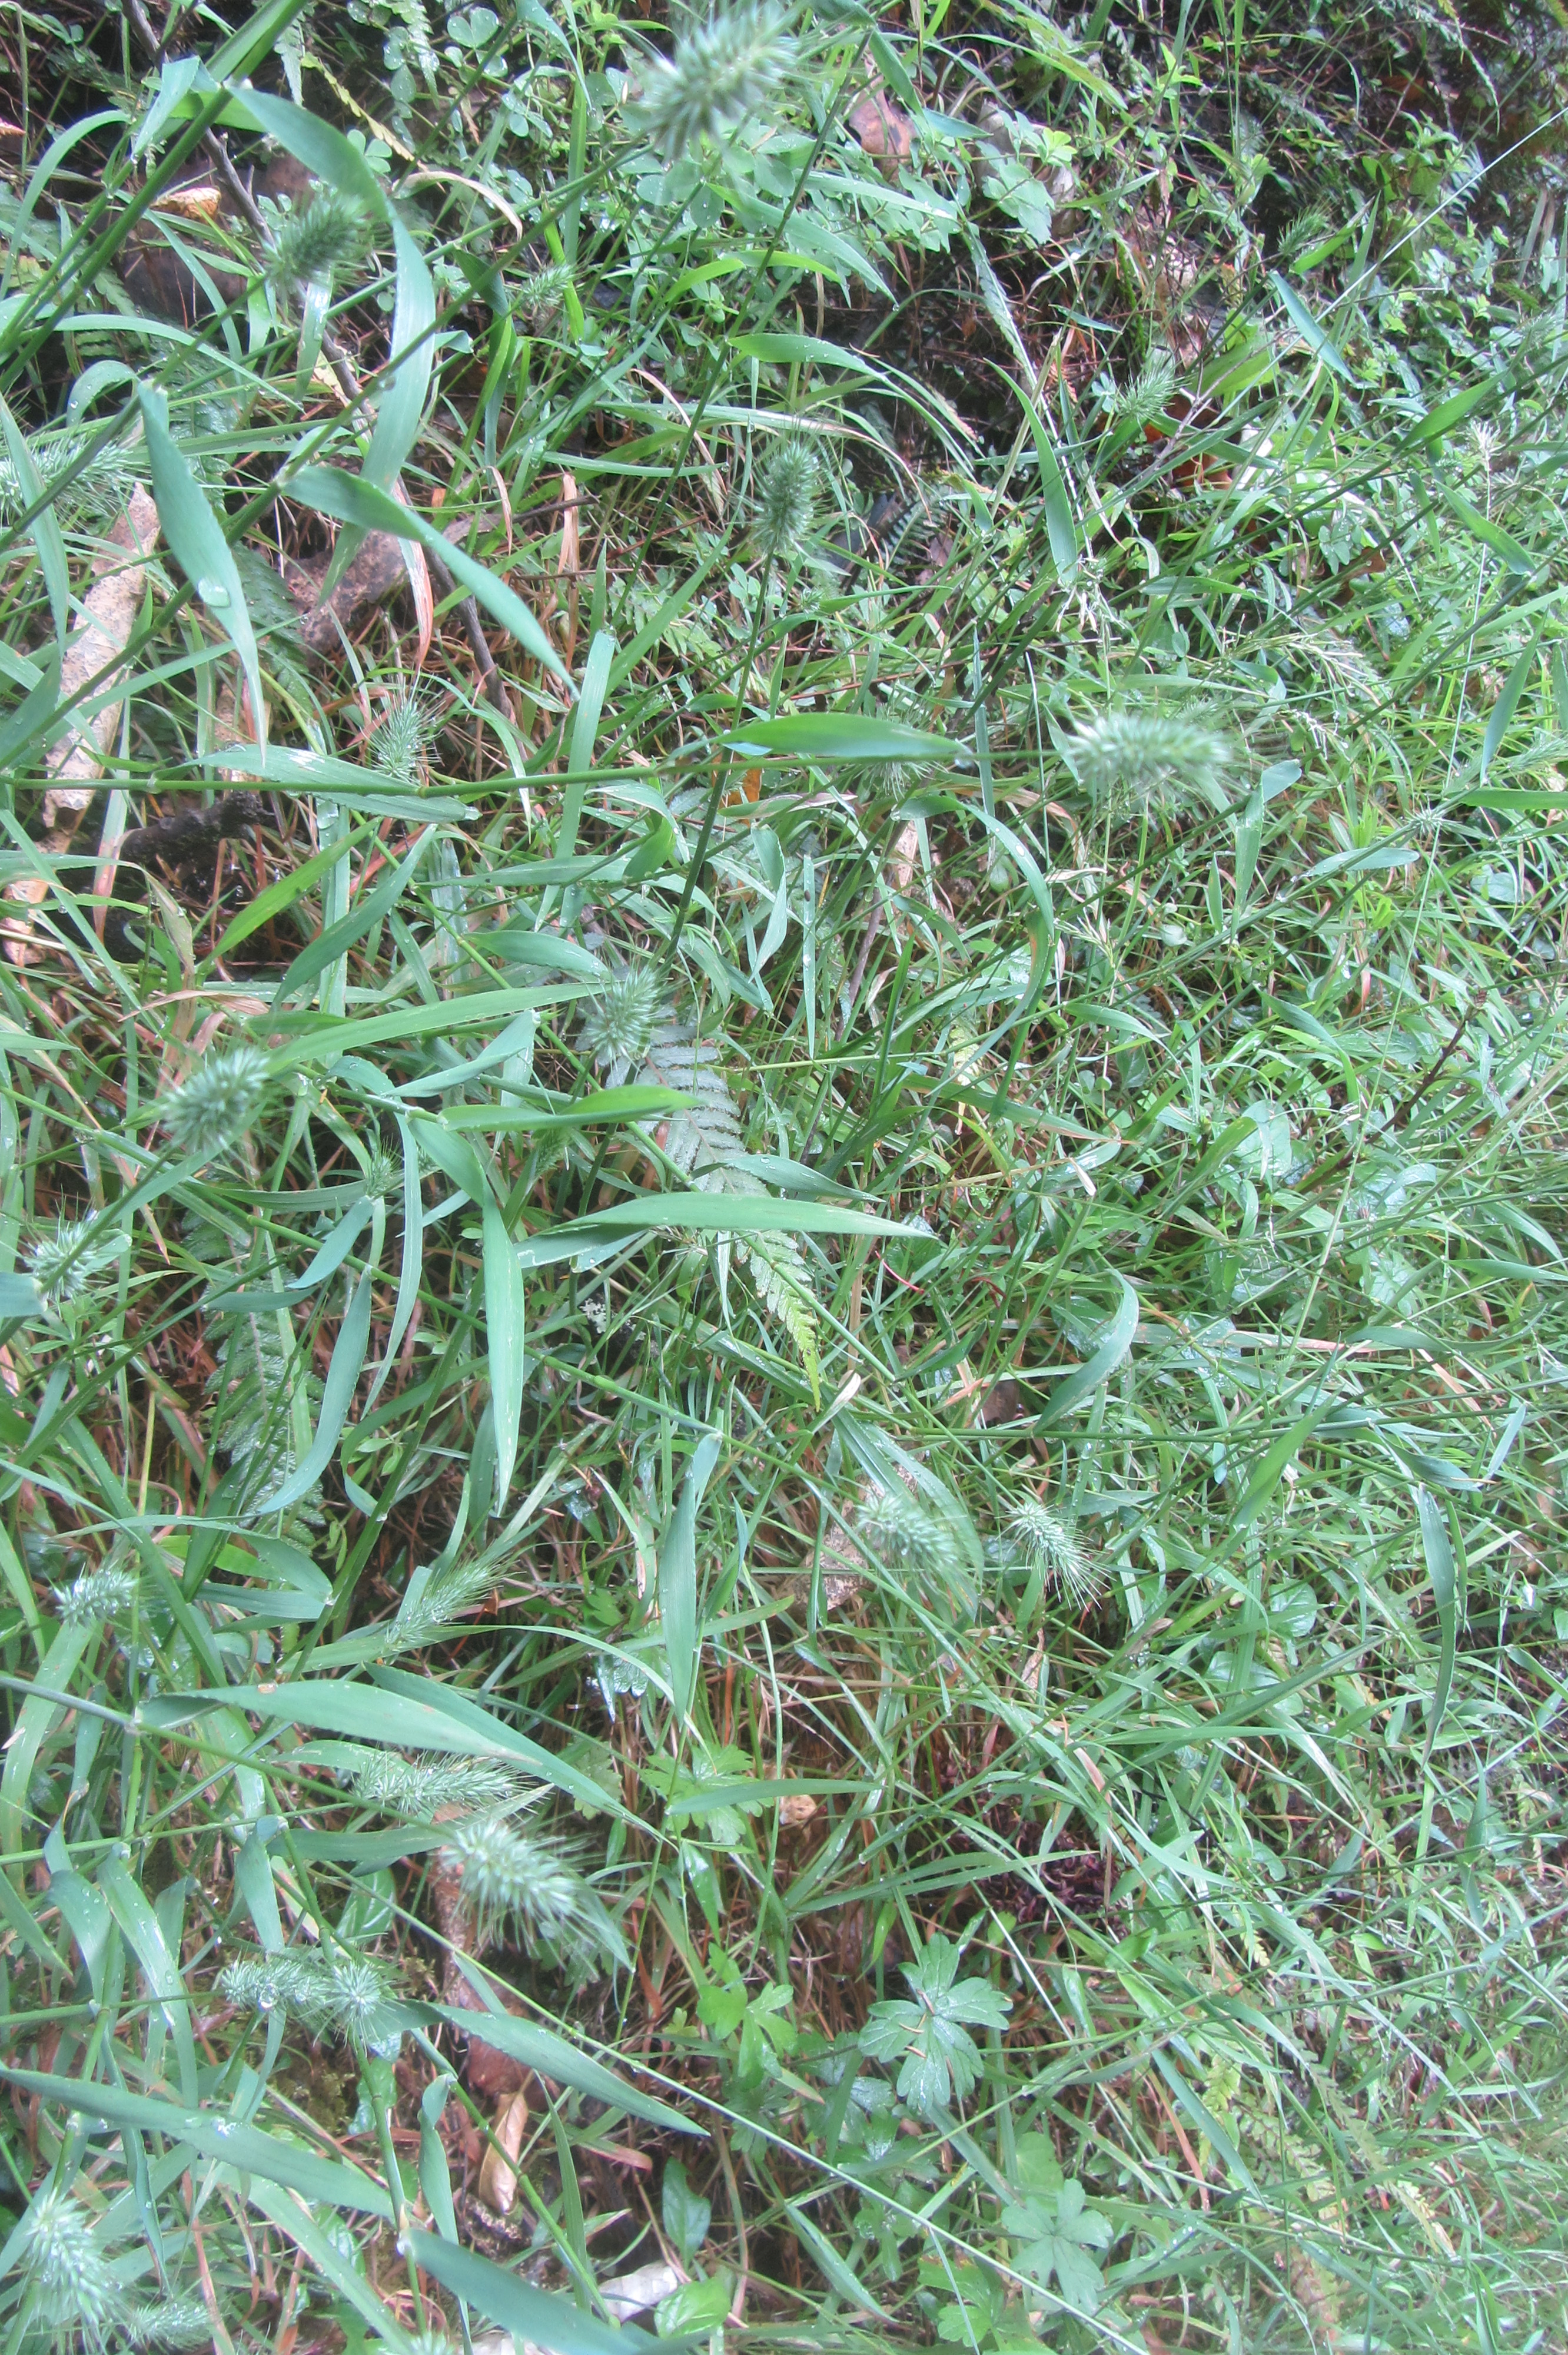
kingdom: Plantae
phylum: Tracheophyta
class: Liliopsida
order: Poales
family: Poaceae
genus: Echinopogon
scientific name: Echinopogon ovatus
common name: Hedgehog-grass
